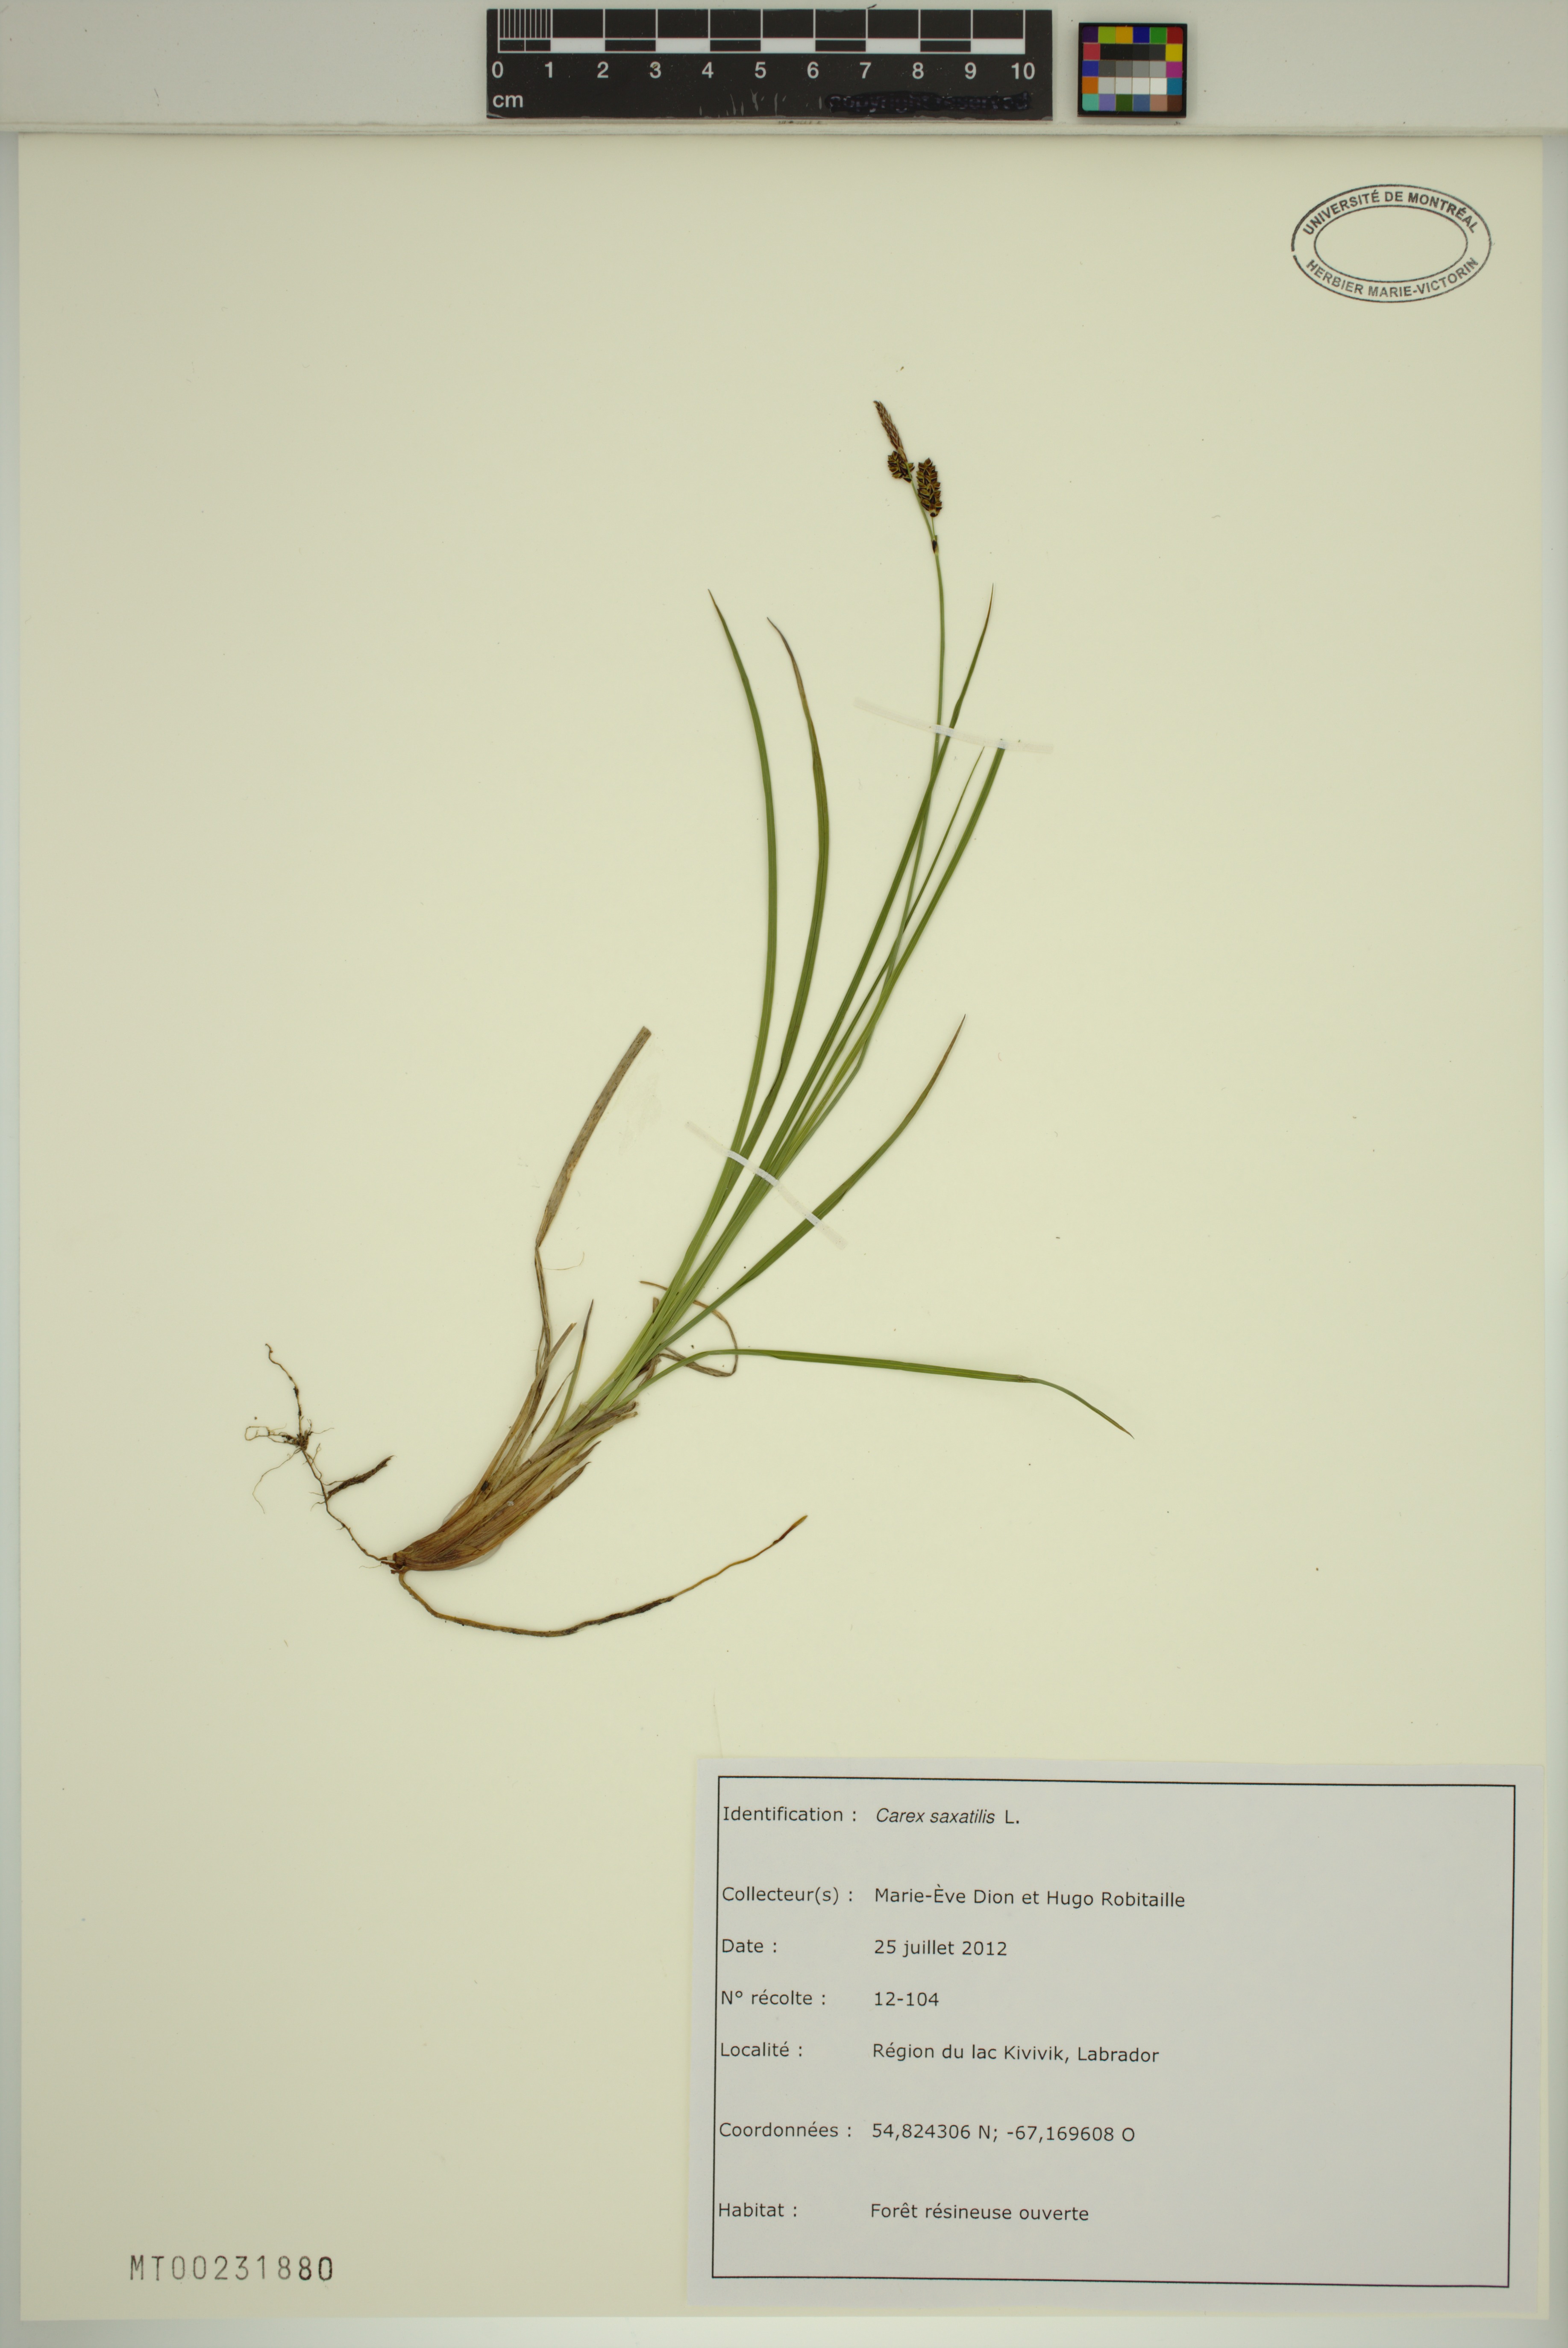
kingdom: Plantae
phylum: Tracheophyta
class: Liliopsida
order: Poales
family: Cyperaceae
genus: Carex
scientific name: Carex saxatilis
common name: Russet sedge
